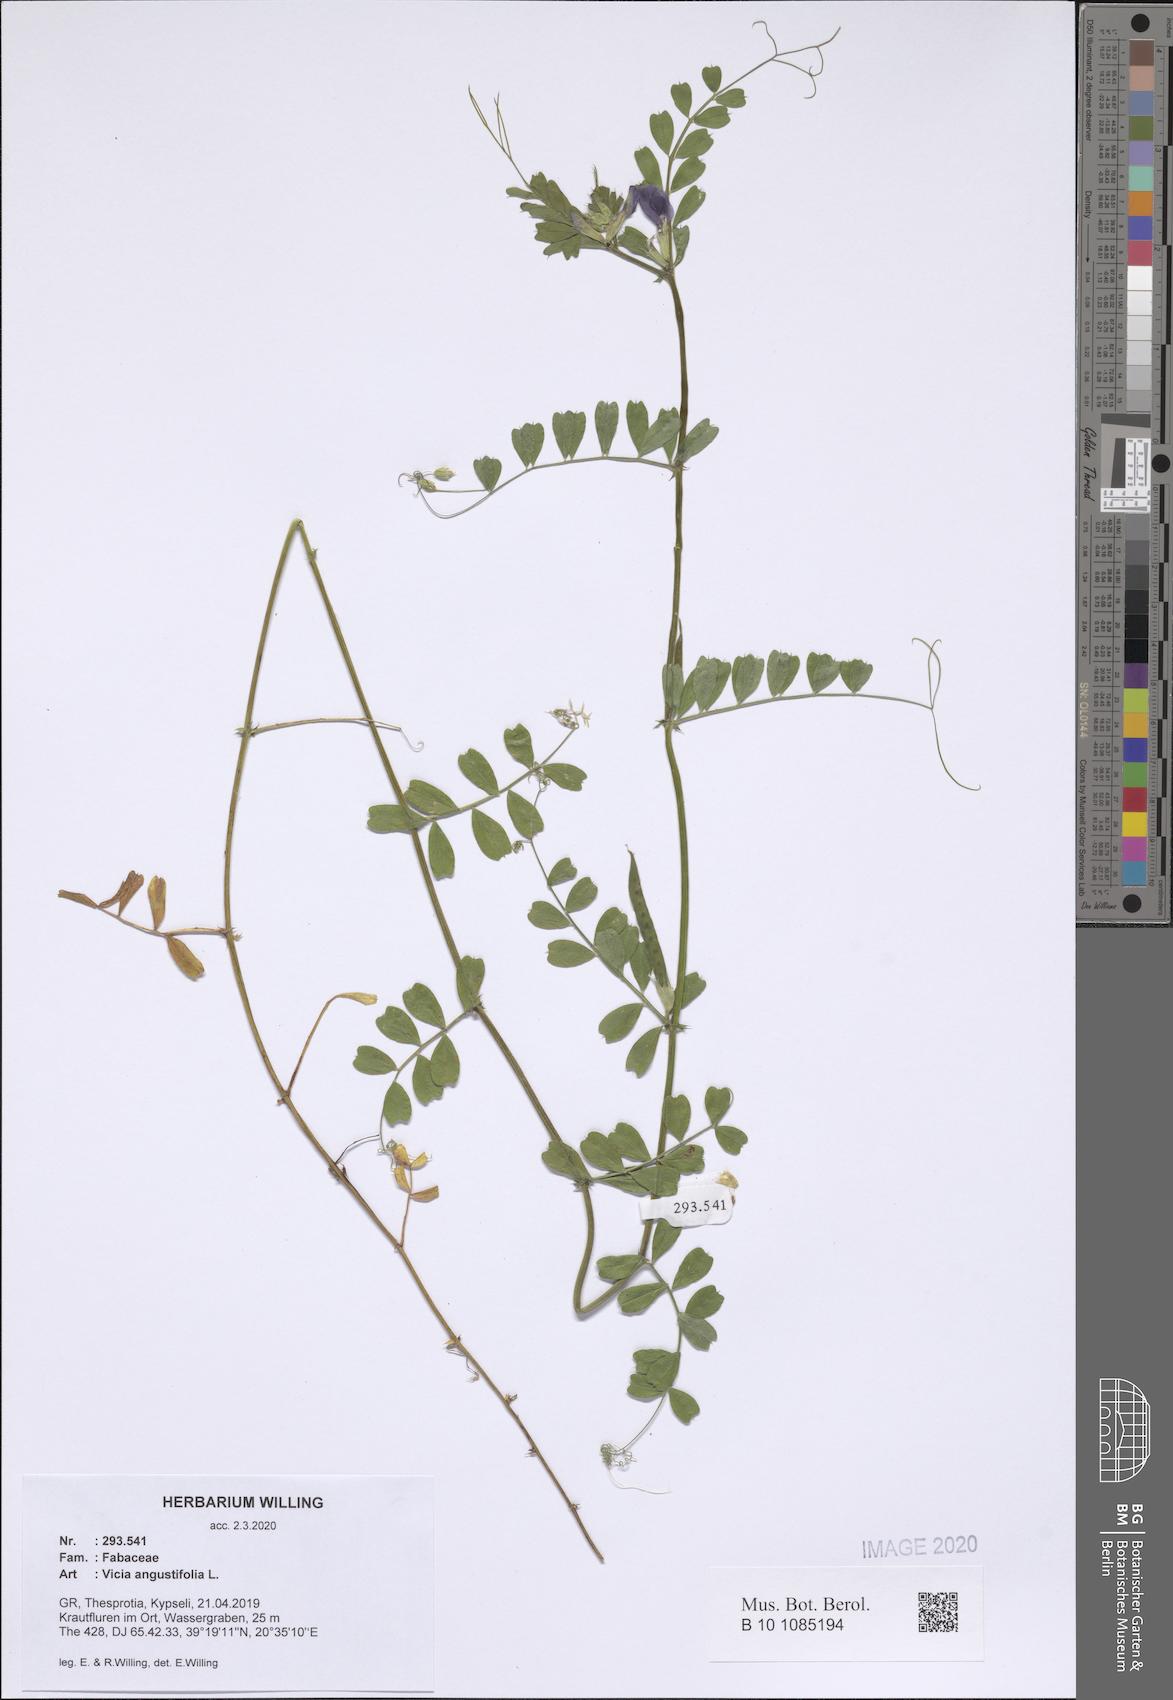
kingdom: Plantae
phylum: Tracheophyta
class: Magnoliopsida
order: Fabales
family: Fabaceae
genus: Vicia
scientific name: Vicia sativa
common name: Garden vetch
